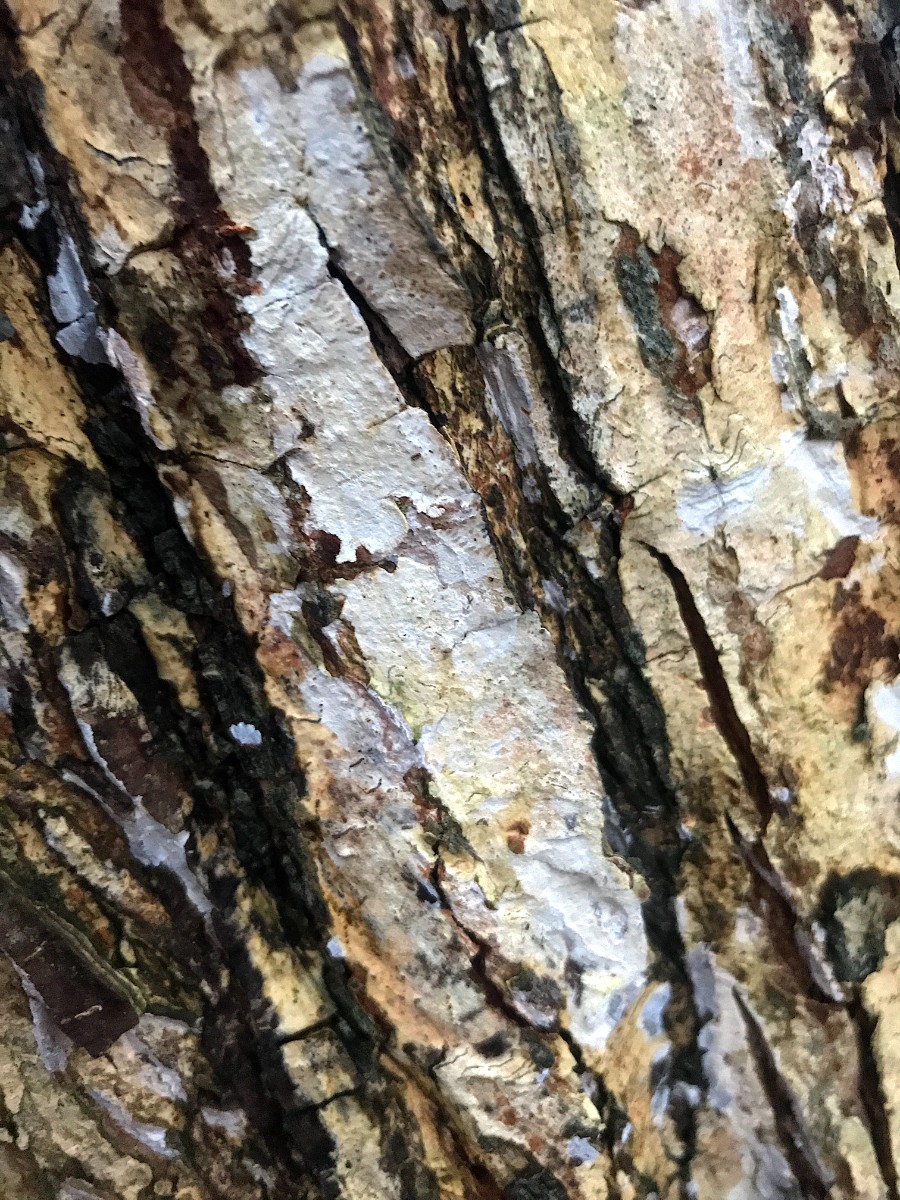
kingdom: Fungi
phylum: Basidiomycota
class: Agaricomycetes
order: Agaricales
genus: Dendrothele
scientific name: Dendrothele acerina
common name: navr-kalkplet
